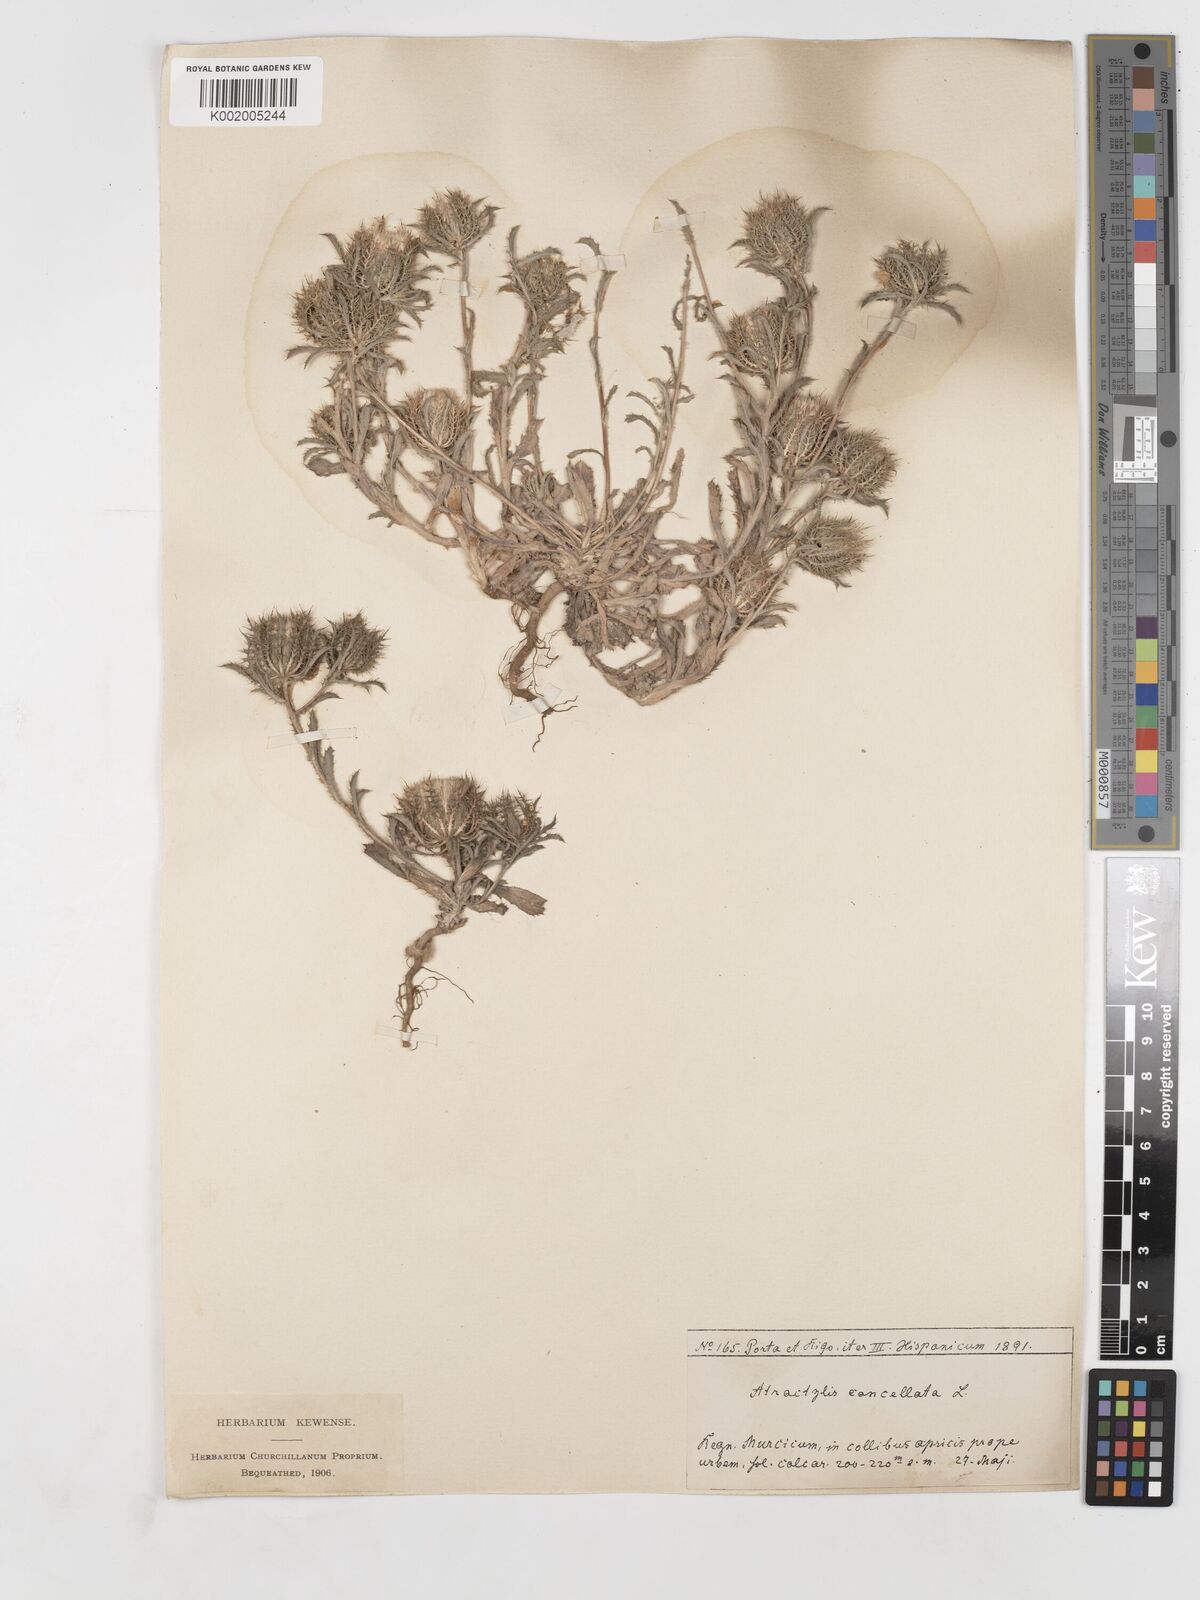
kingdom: Plantae
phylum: Tracheophyta
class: Magnoliopsida
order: Asterales
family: Asteraceae
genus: Atractylis
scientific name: Atractylis cancellata
